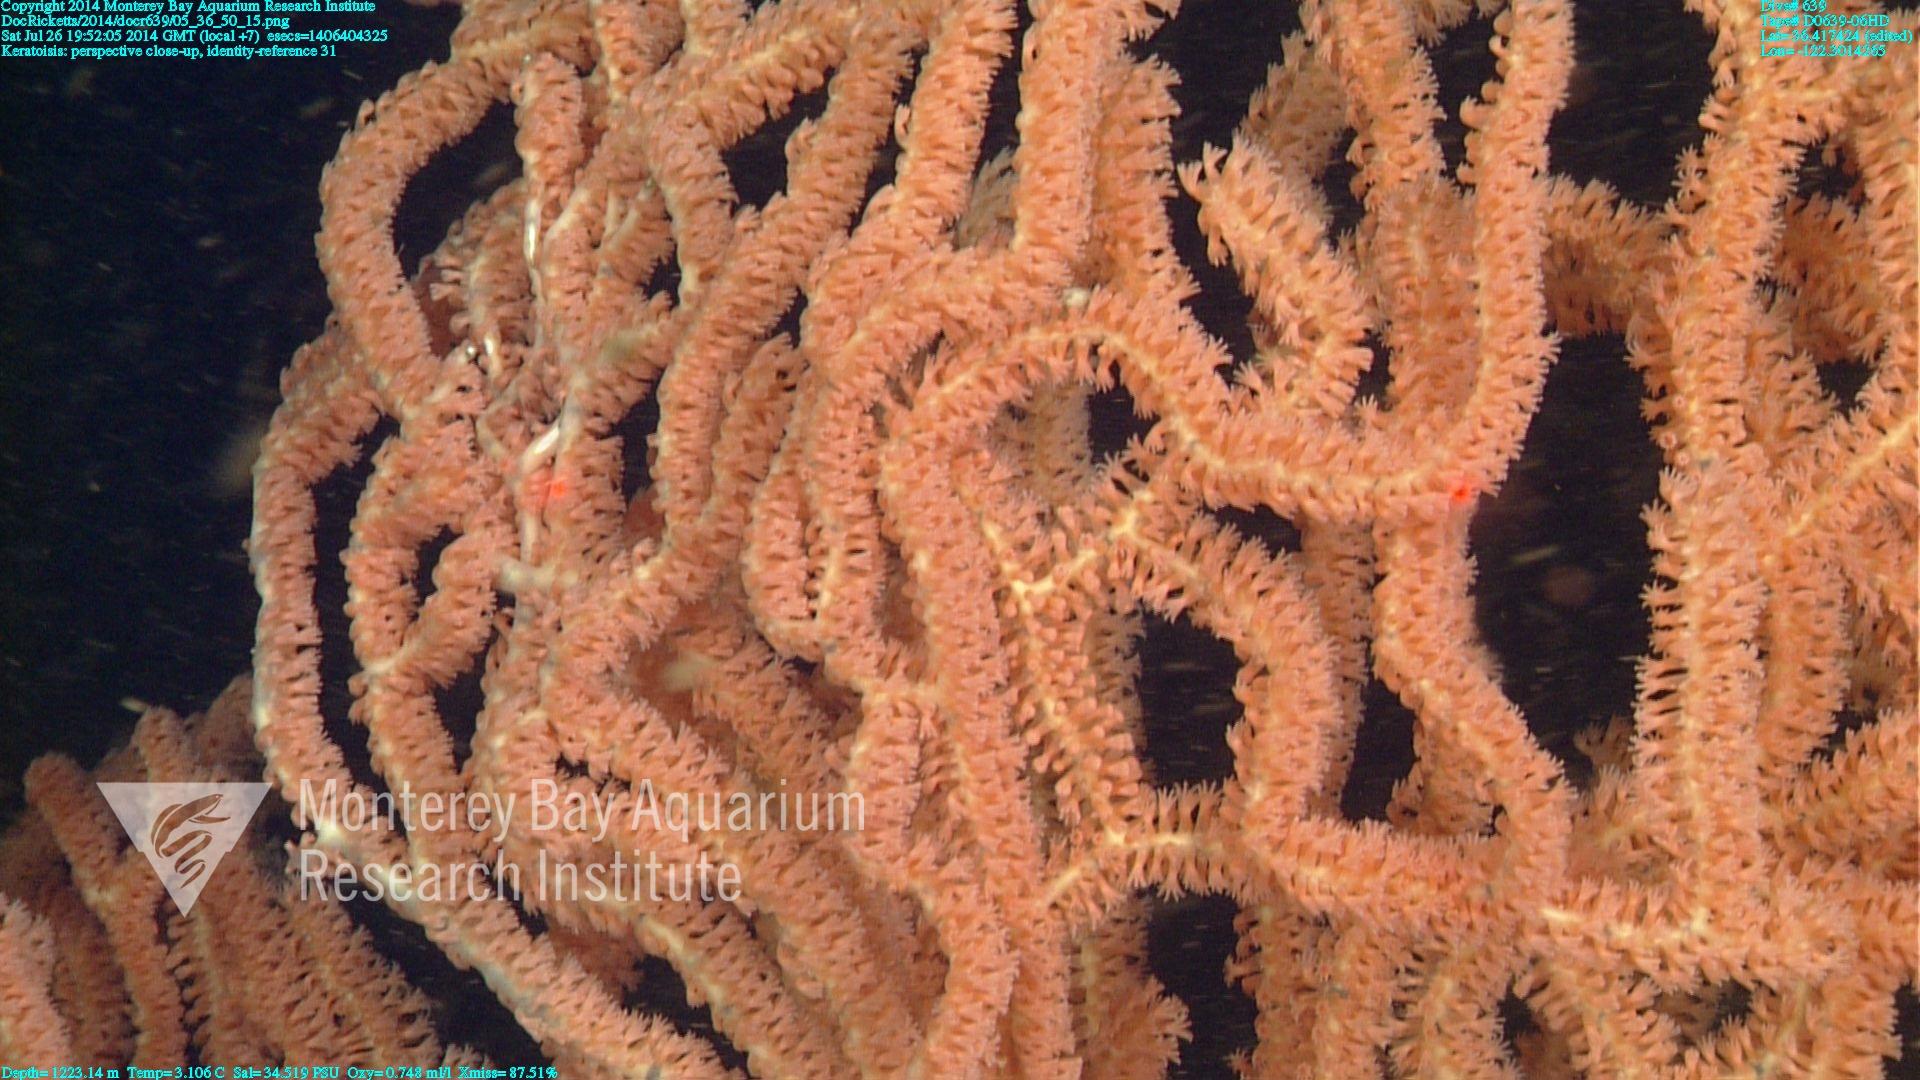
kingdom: Animalia
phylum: Cnidaria
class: Anthozoa
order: Scleralcyonacea
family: Keratoisididae
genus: Keratoisis
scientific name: Keratoisis
